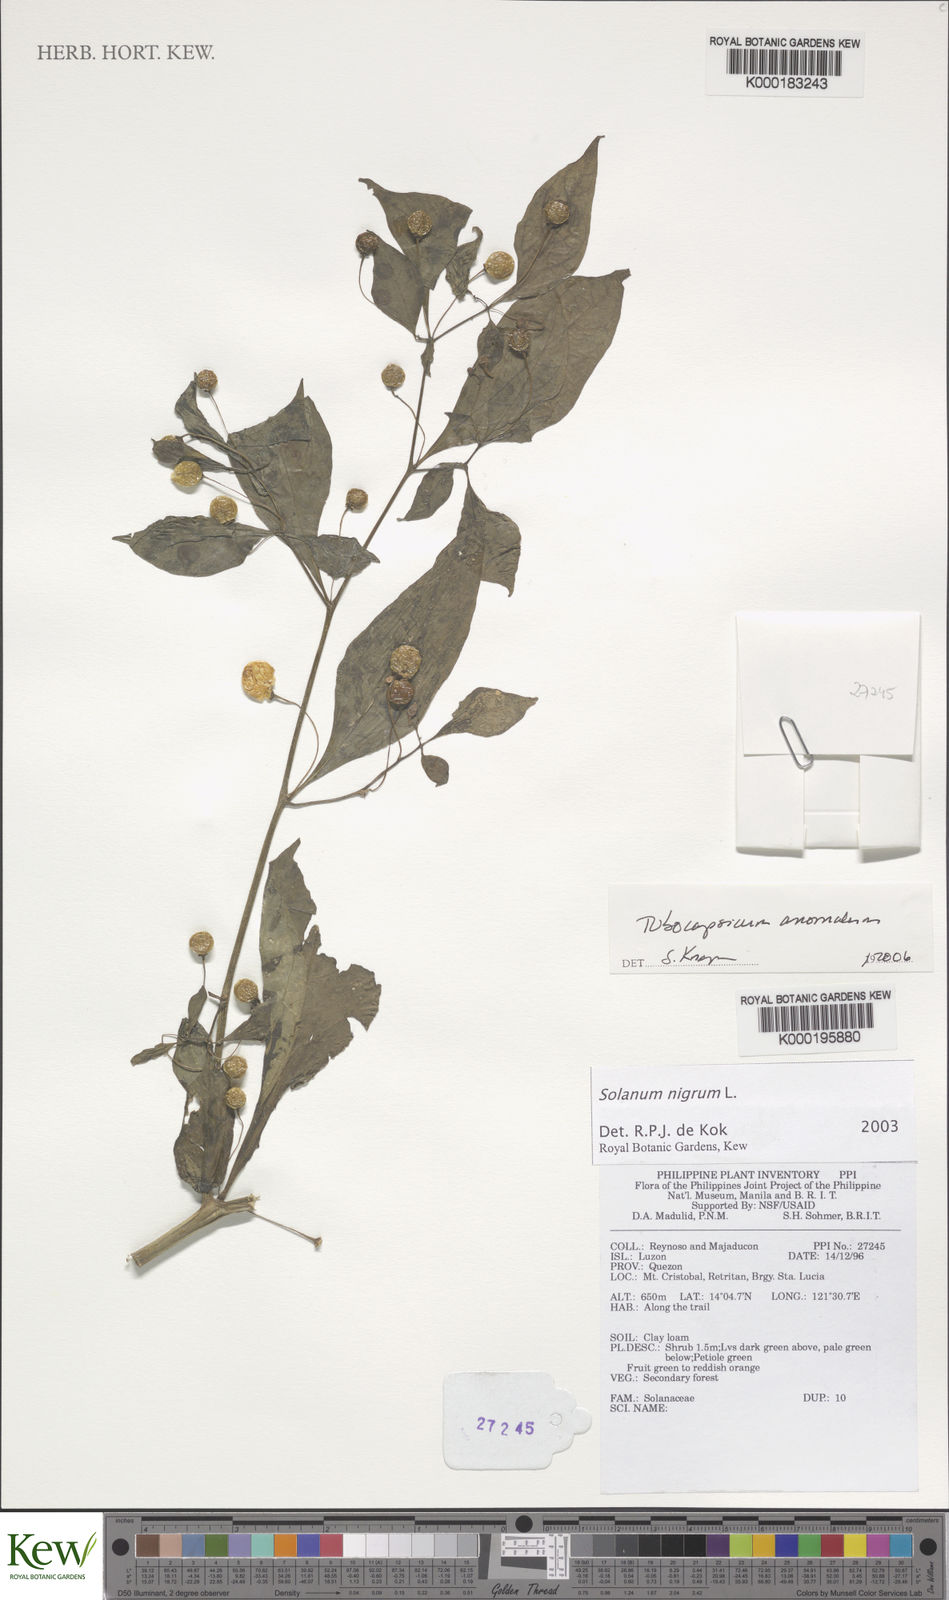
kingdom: Plantae
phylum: Tracheophyta
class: Magnoliopsida
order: Solanales
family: Solanaceae
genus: Tubocapsicum
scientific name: Tubocapsicum anomalum
